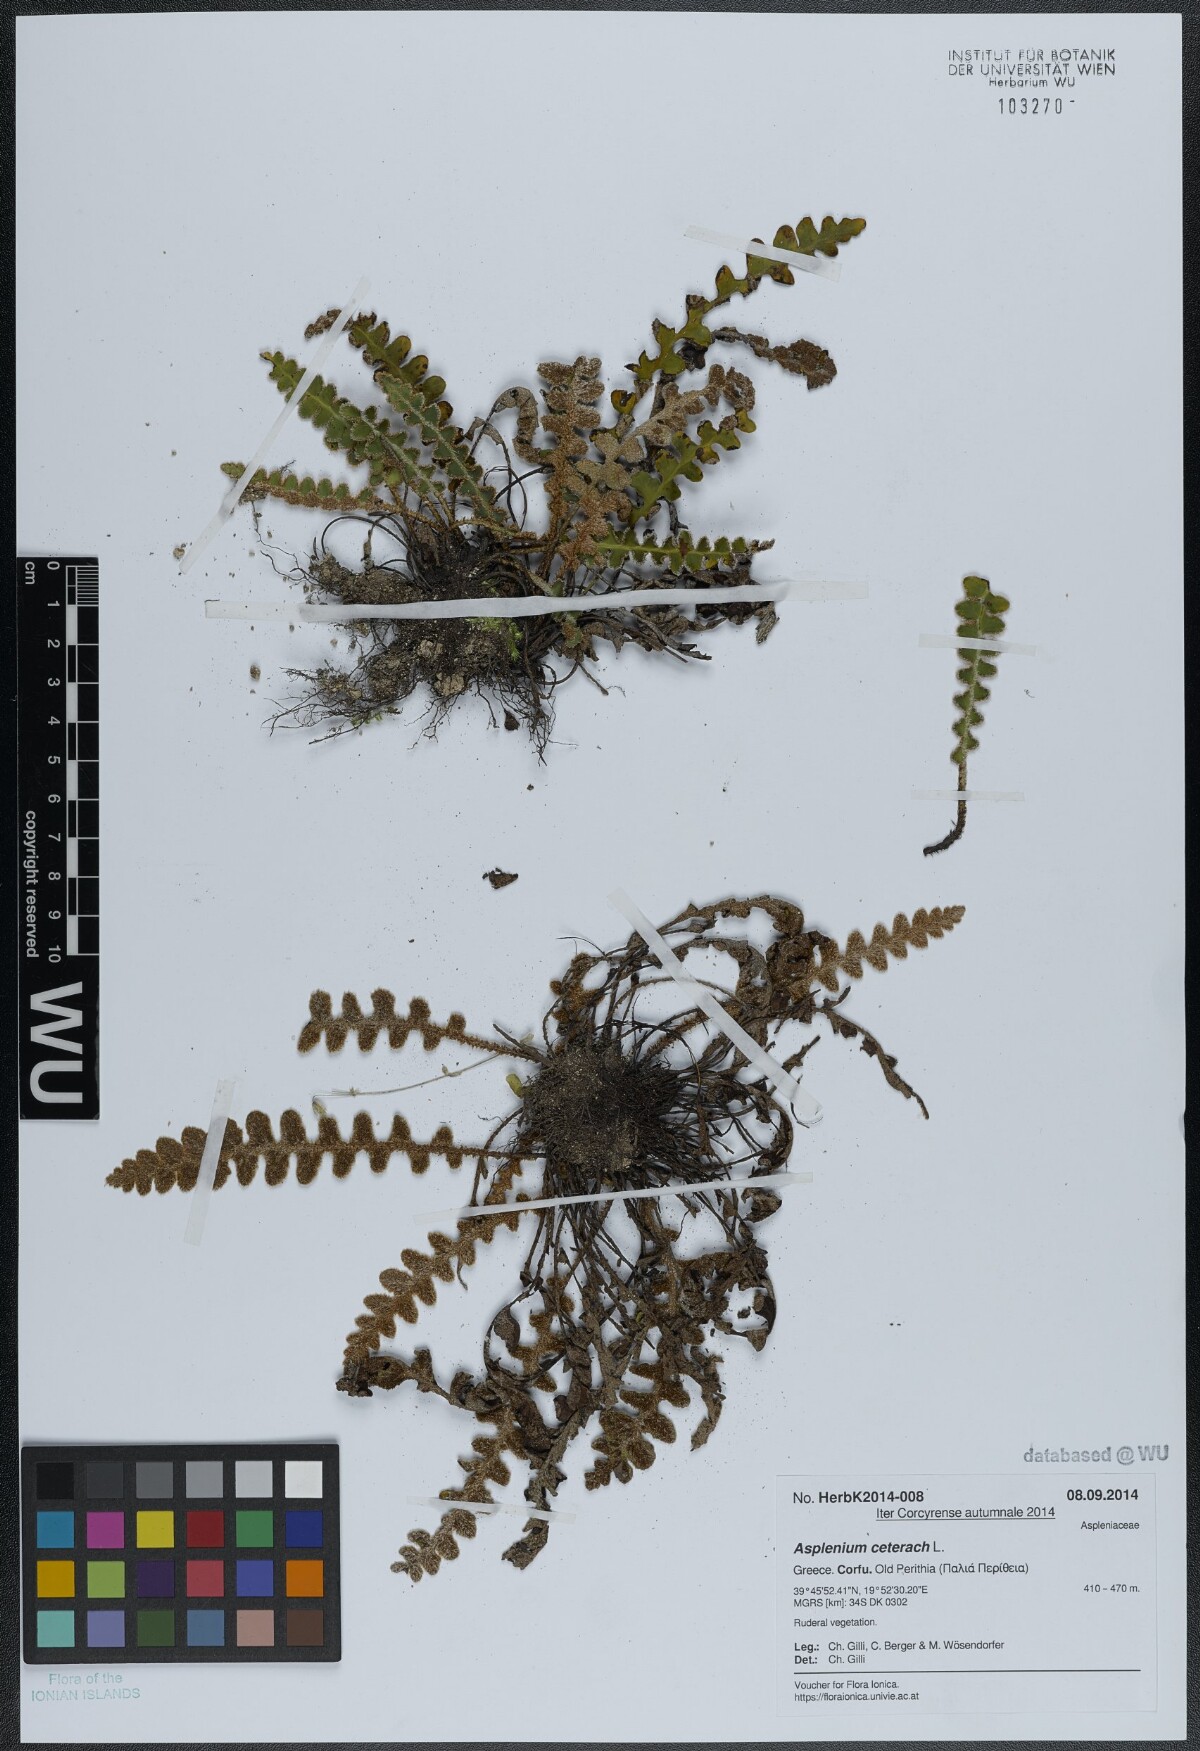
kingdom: Plantae
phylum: Tracheophyta
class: Polypodiopsida
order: Polypodiales
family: Aspleniaceae
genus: Asplenium
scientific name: Asplenium ceterach
